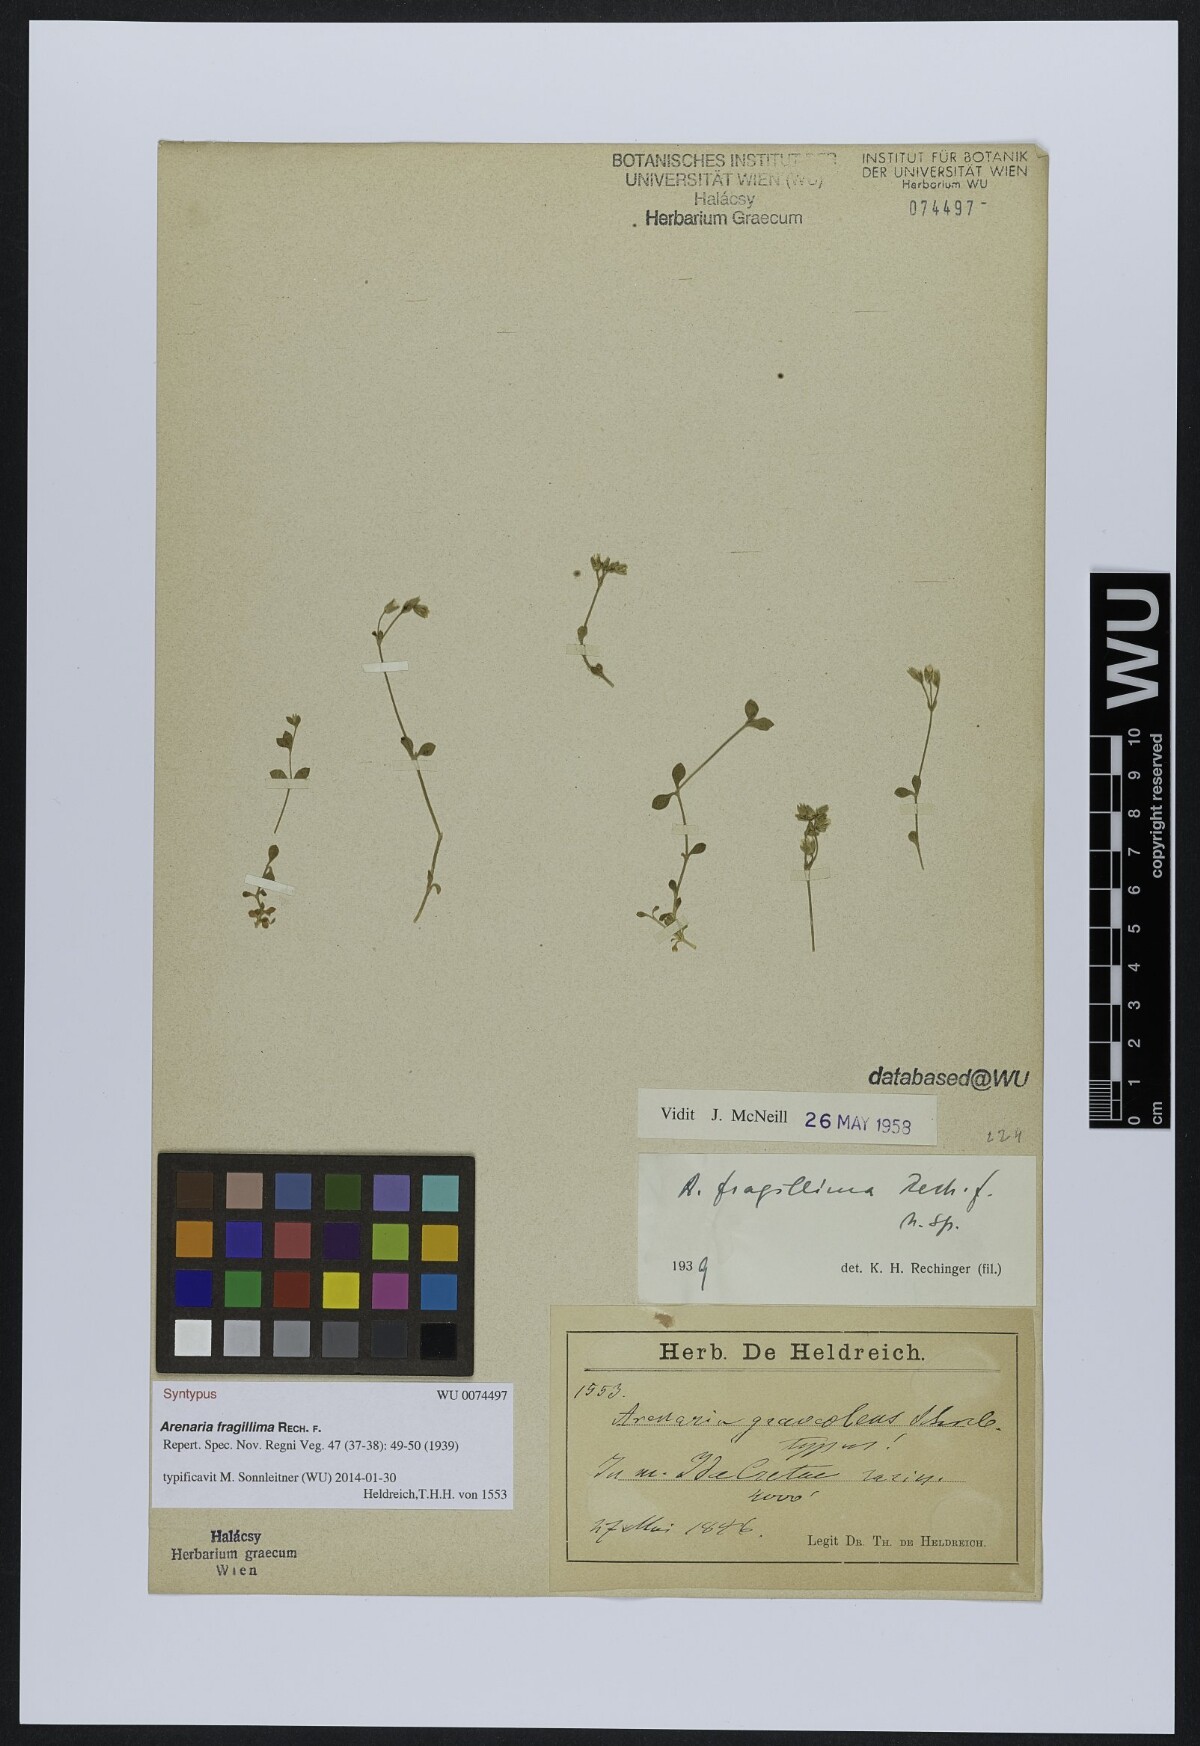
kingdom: Plantae
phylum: Tracheophyta
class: Magnoliopsida
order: Caryophyllales
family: Caryophyllaceae
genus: Arenaria
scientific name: Arenaria fragillima
